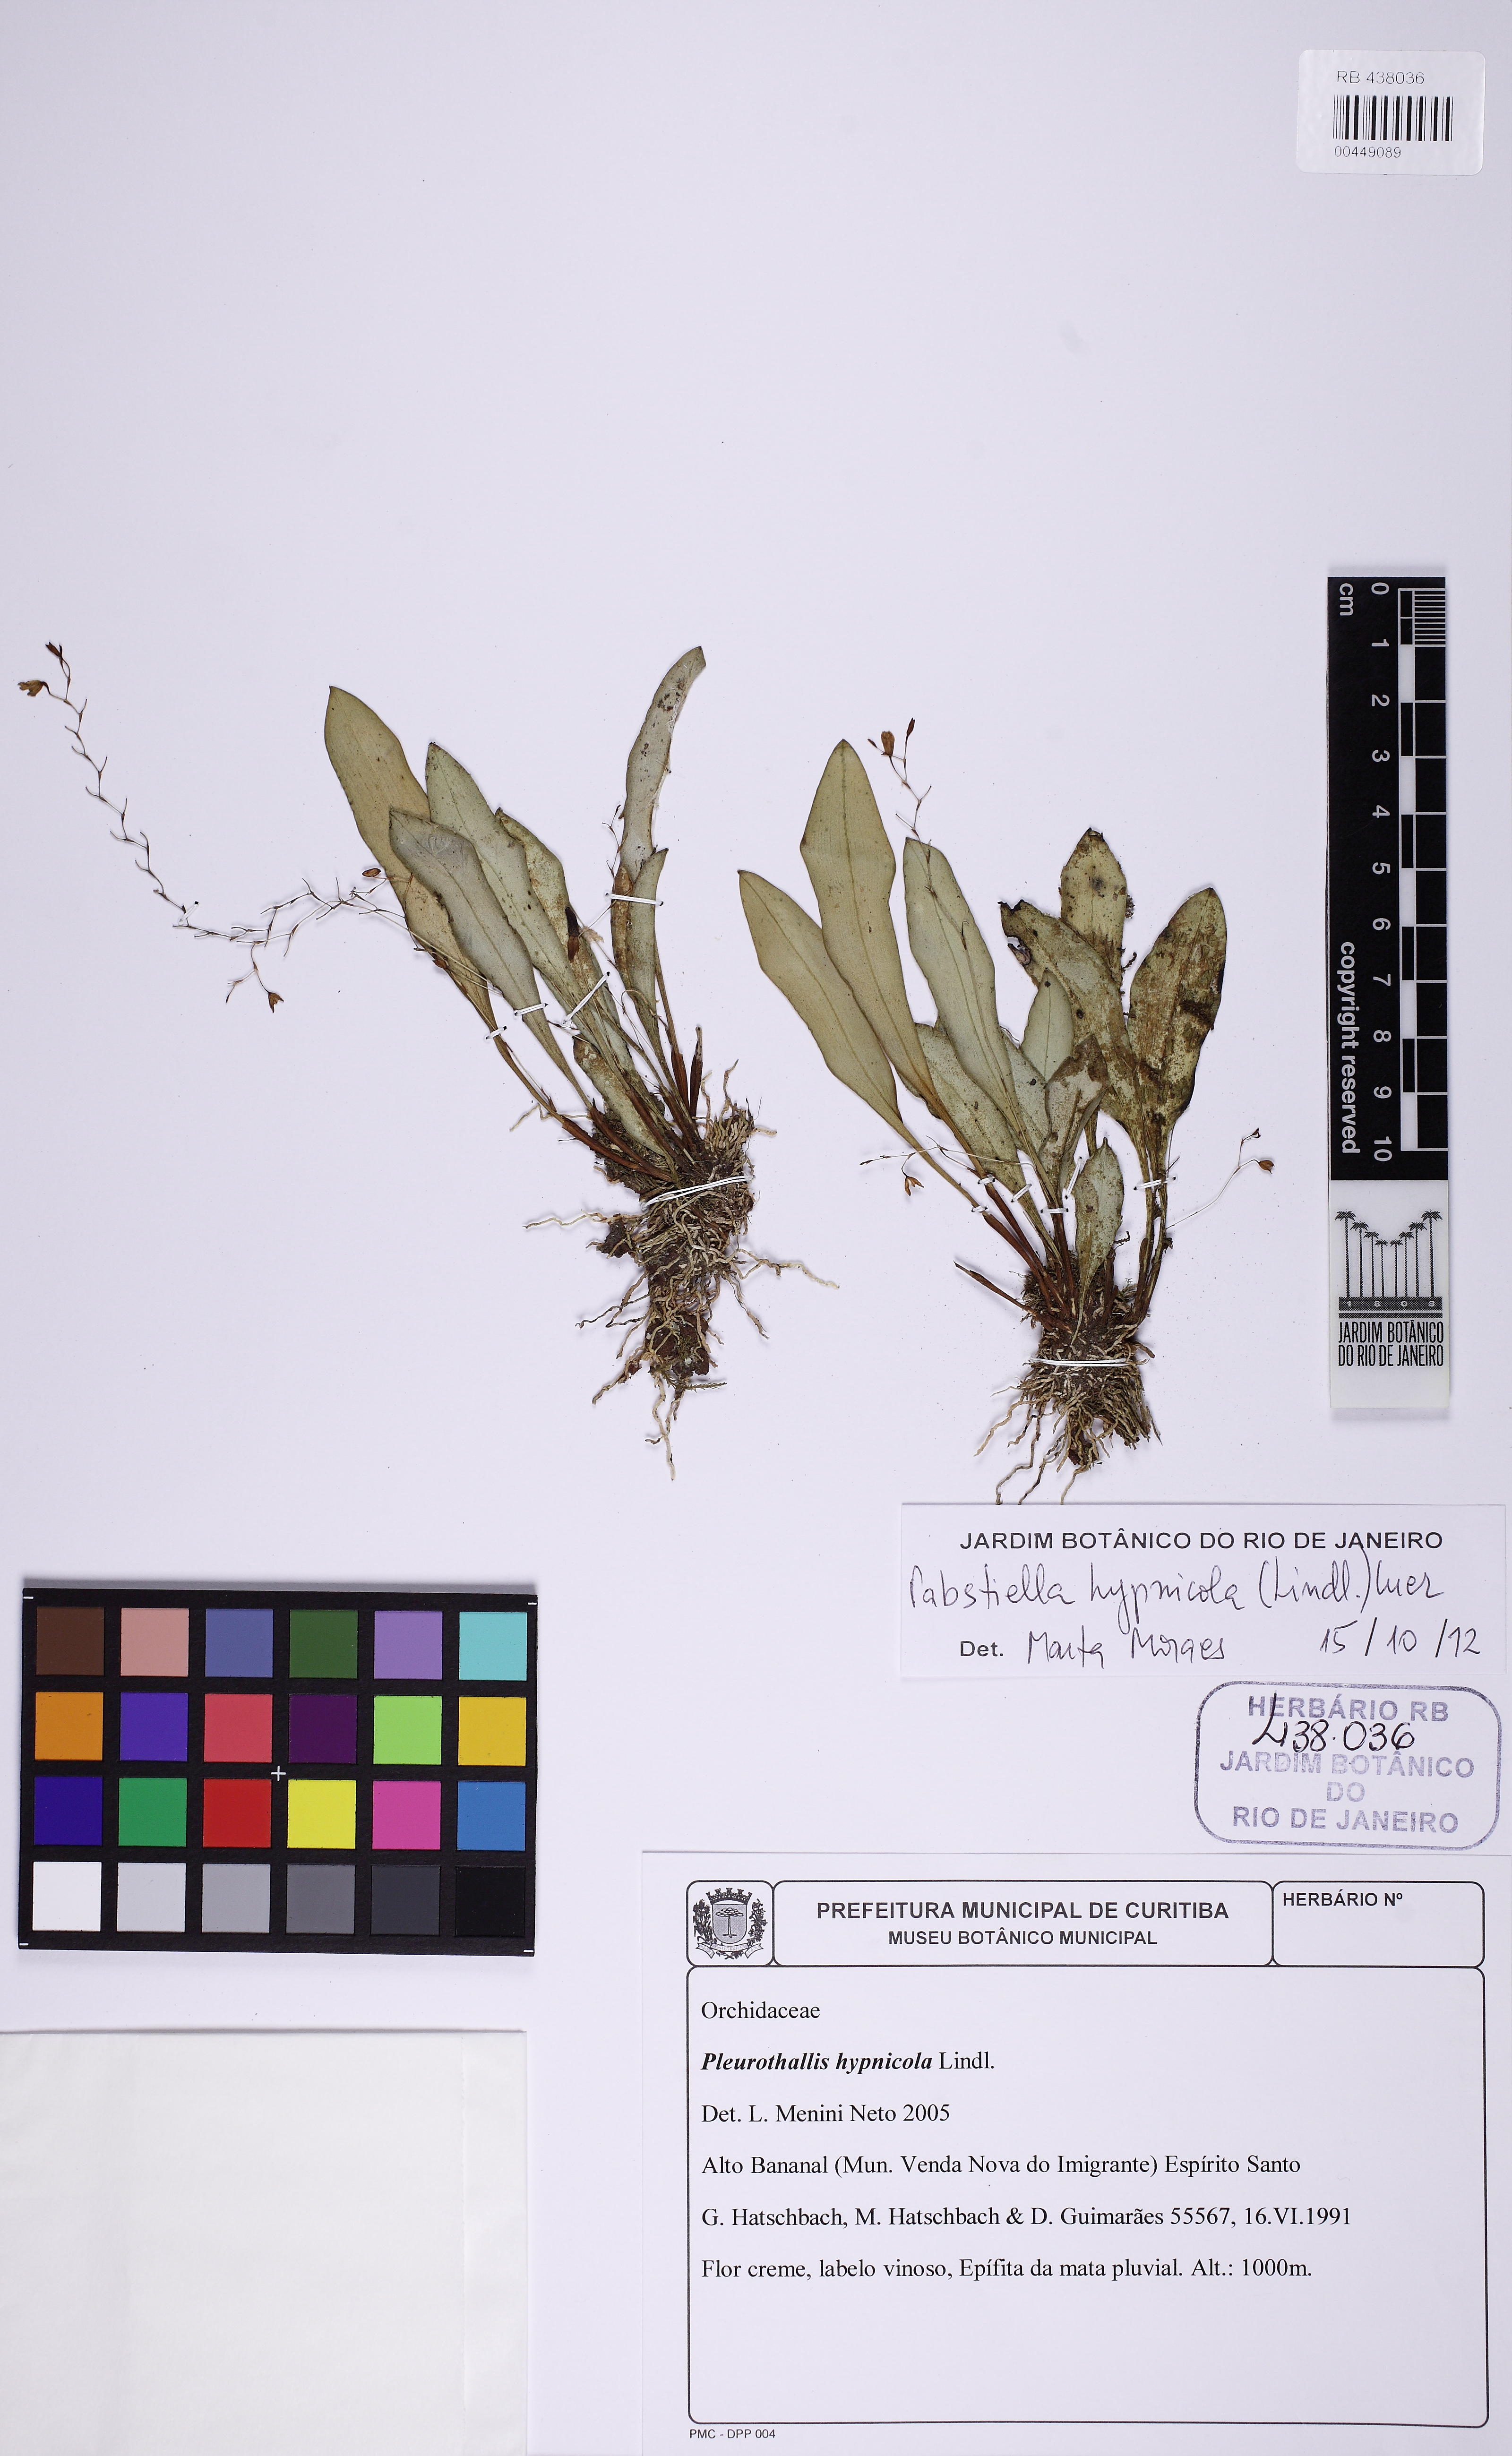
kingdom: Plantae
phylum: Tracheophyta
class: Liliopsida
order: Asparagales
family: Orchidaceae
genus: Pabstiella
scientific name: Pabstiella fusca
